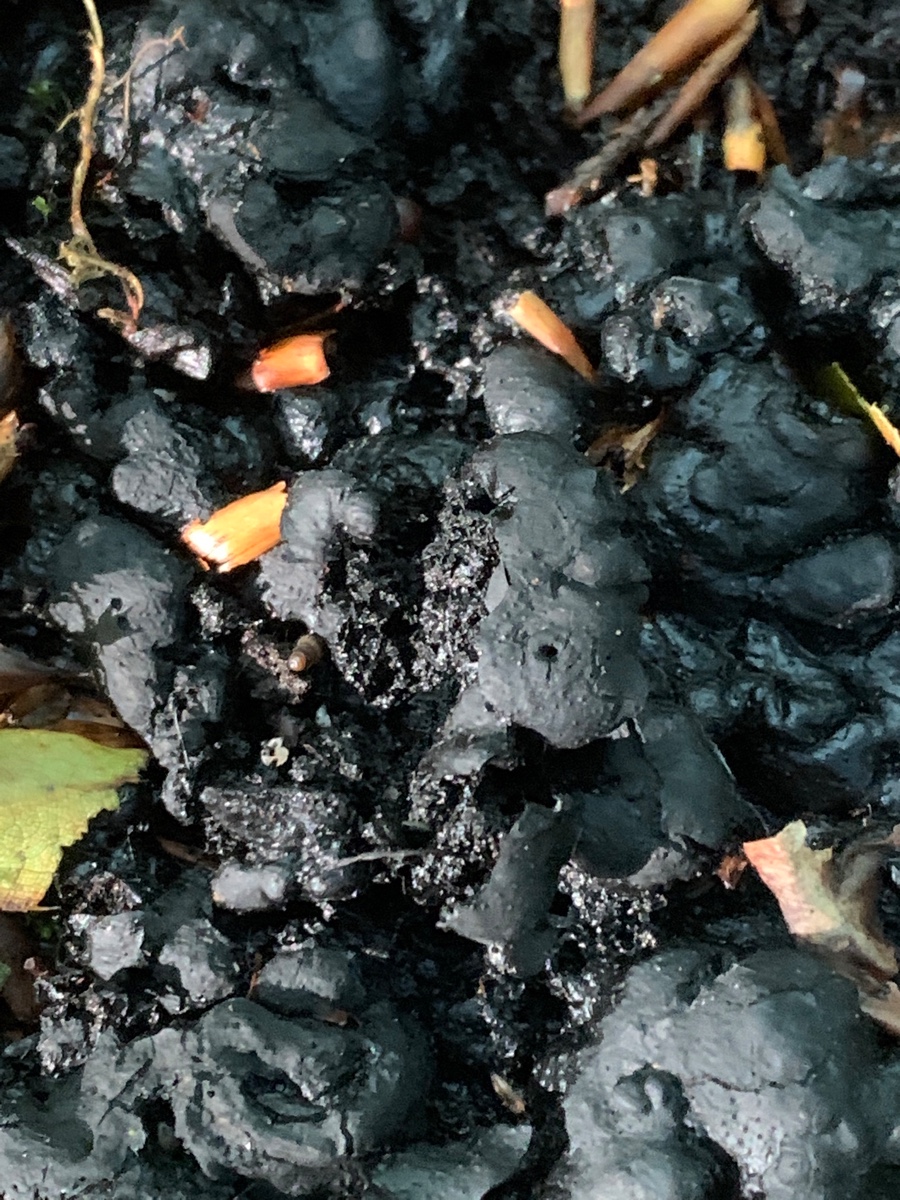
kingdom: Fungi
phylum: Ascomycota
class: Sordariomycetes
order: Xylariales
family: Xylariaceae
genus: Kretzschmaria
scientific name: Kretzschmaria deusta
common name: stor kulsvamp
